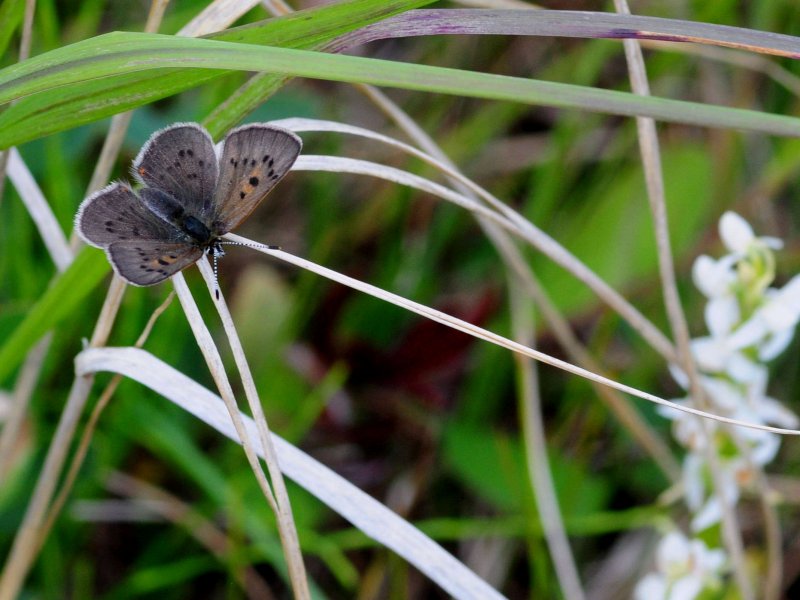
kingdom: Animalia
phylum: Arthropoda
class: Insecta
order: Lepidoptera
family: Sesiidae
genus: Sesia
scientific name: Sesia Lycaena epixanthe
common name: Bog Copper
